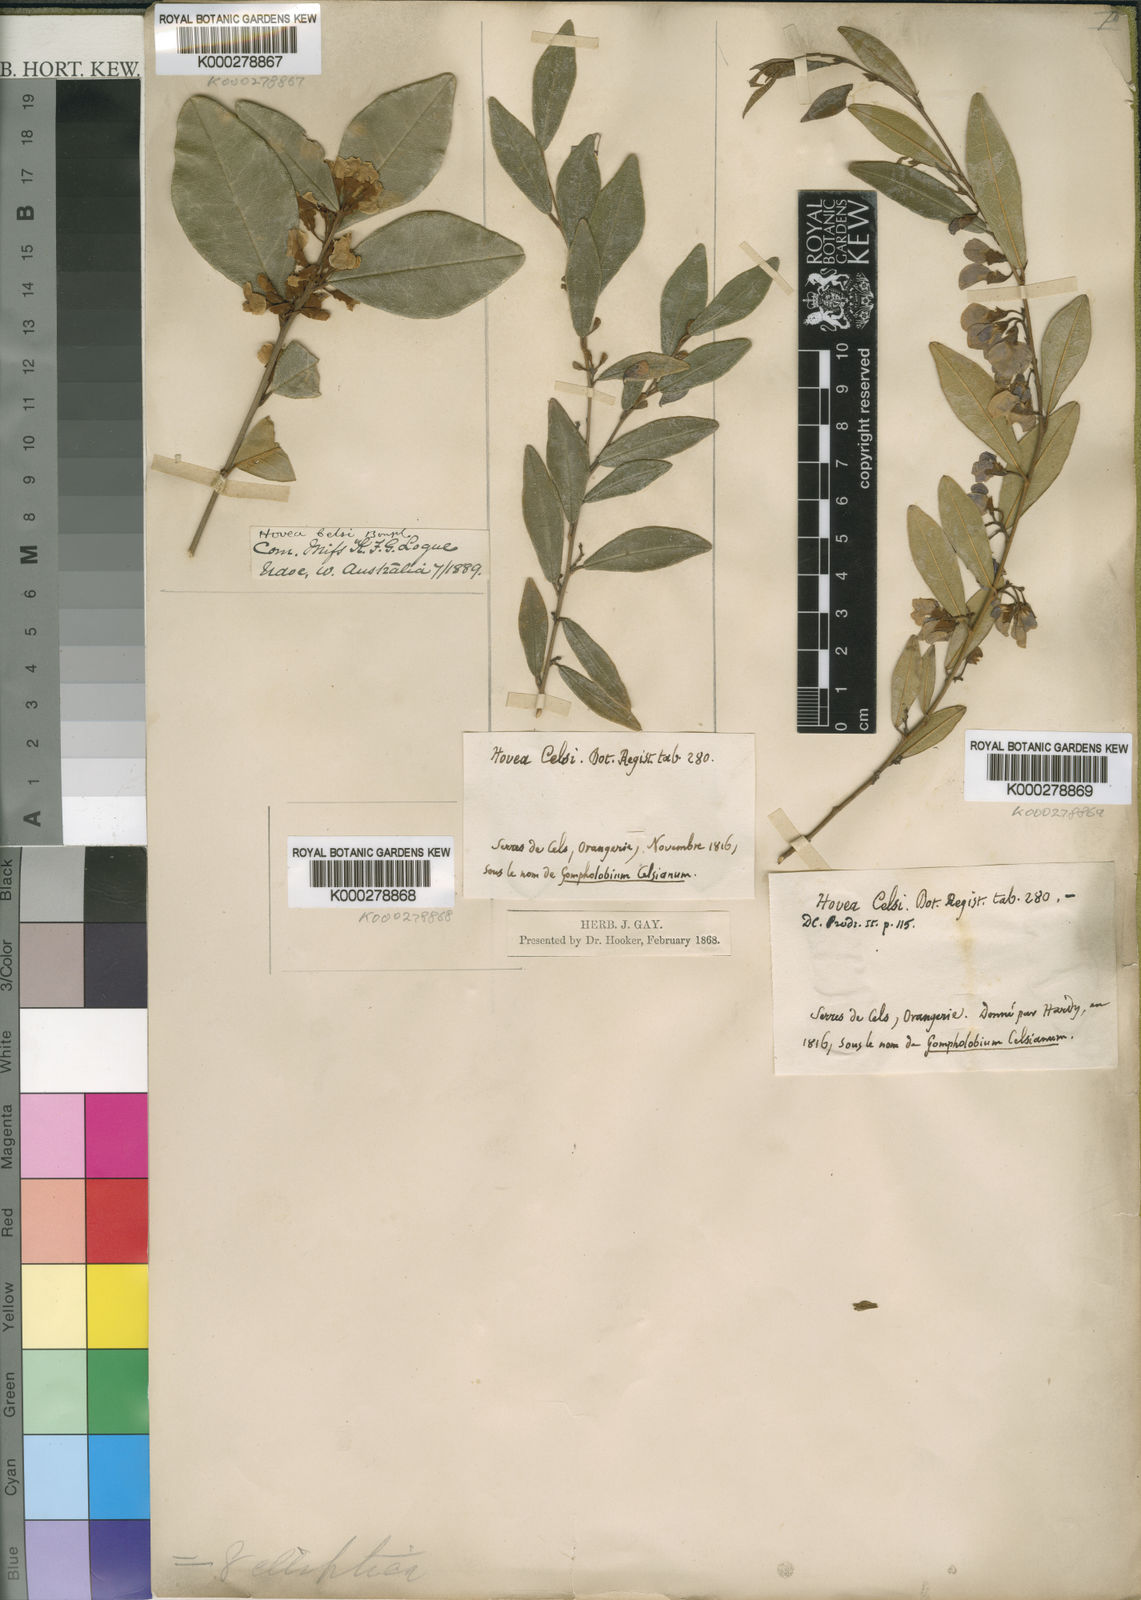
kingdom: Plantae
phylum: Tracheophyta
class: Magnoliopsida
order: Fabales
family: Fabaceae
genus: Hovea
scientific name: Hovea elliptica
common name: Tree hovea
